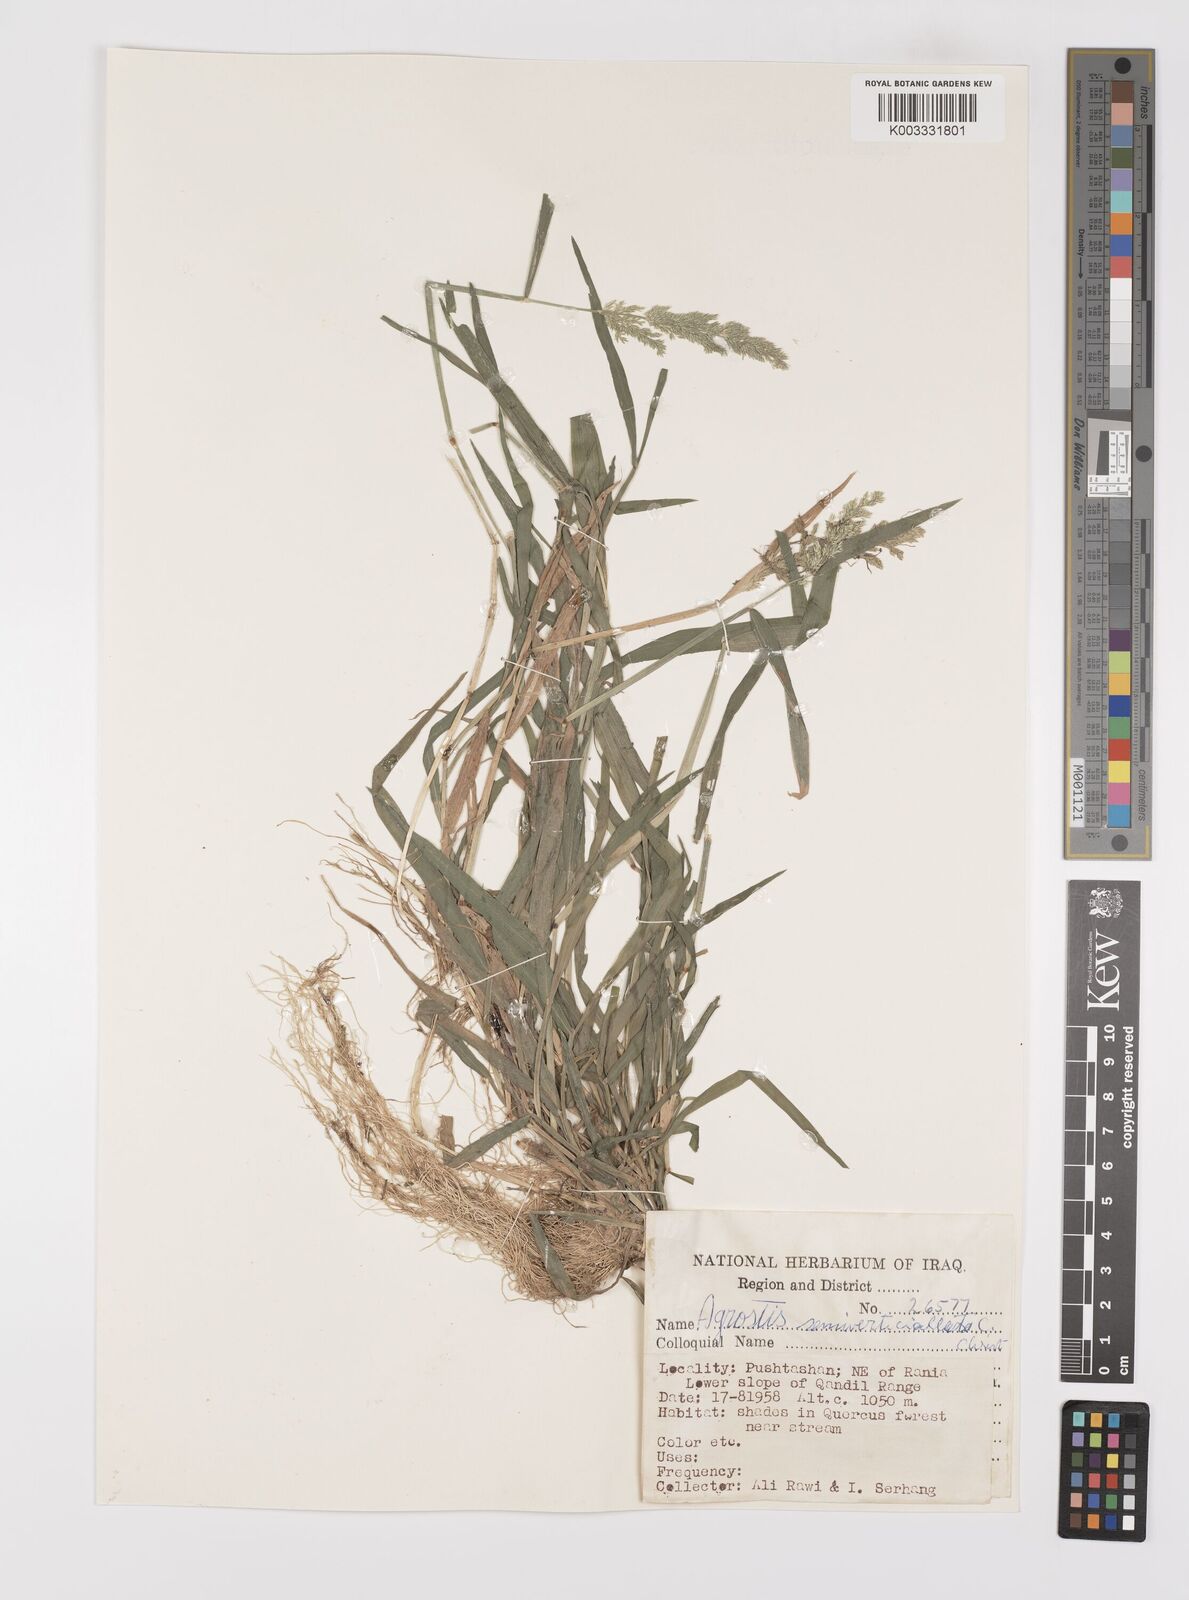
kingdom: Plantae
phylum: Tracheophyta
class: Liliopsida
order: Poales
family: Poaceae
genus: Polypogon
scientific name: Polypogon viridis
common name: Water bent
